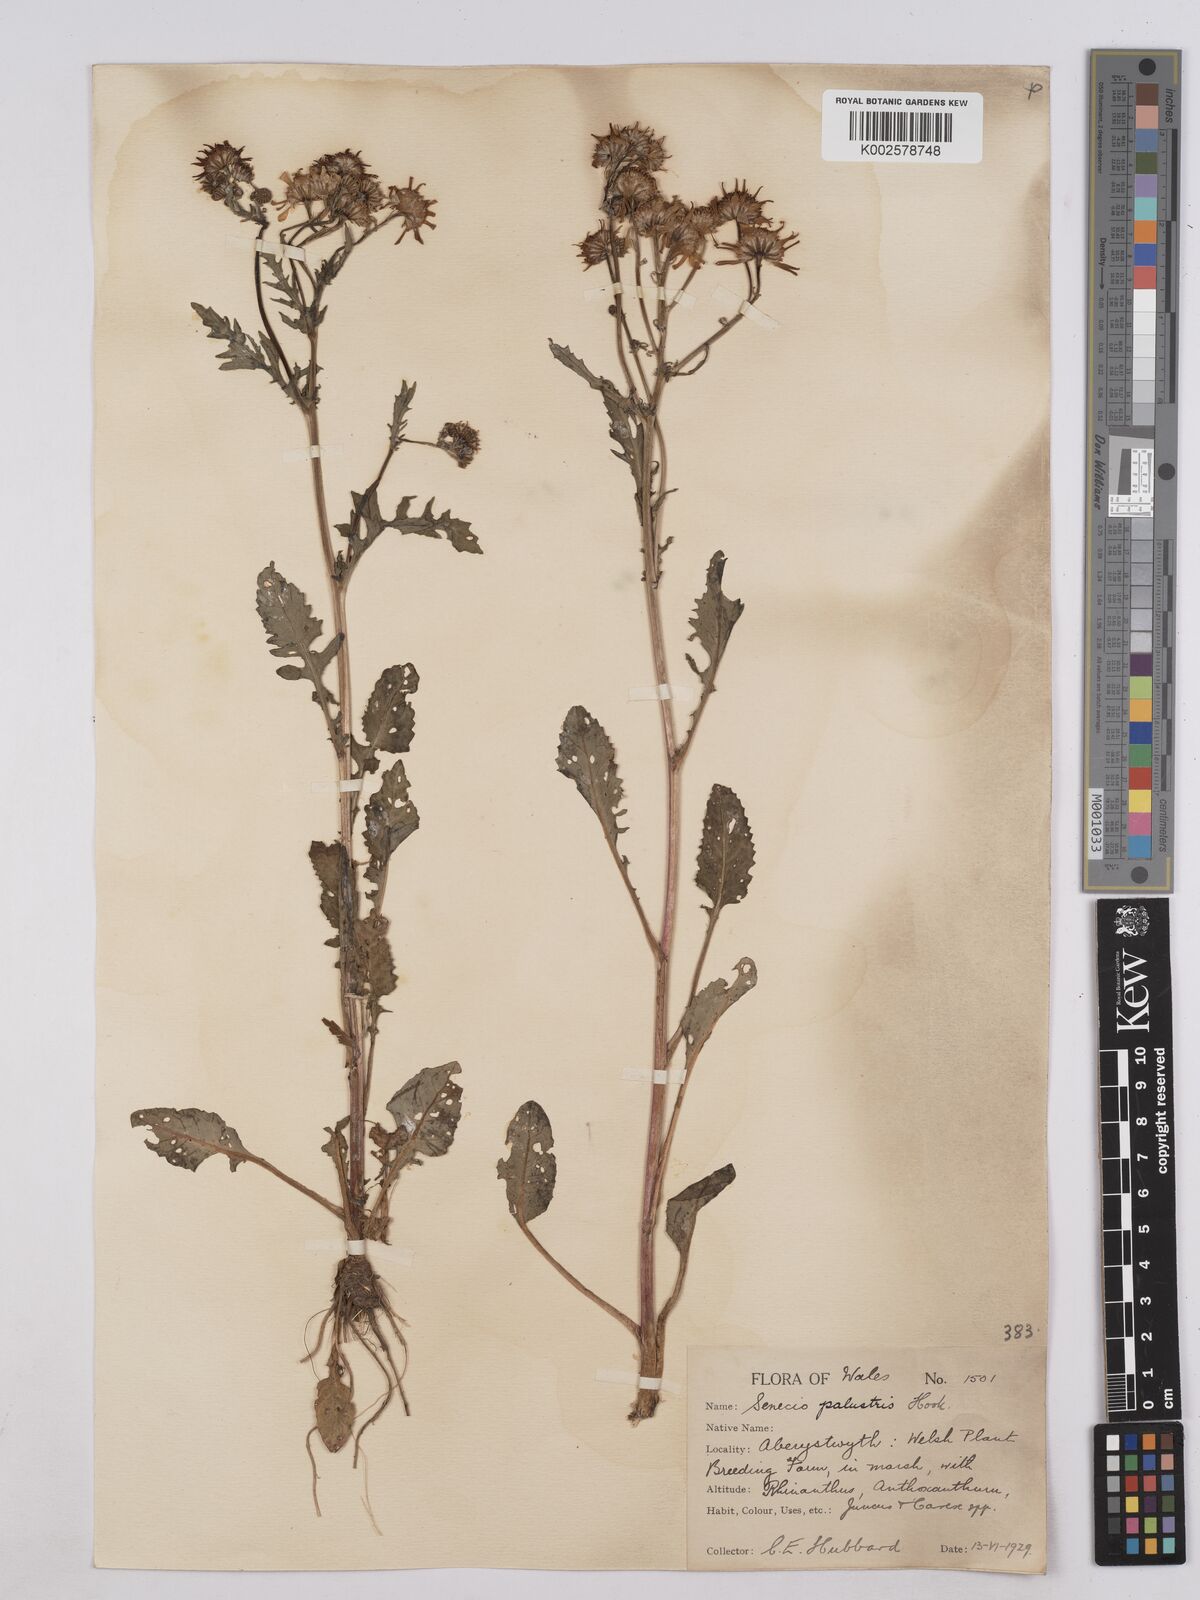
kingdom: Plantae
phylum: Tracheophyta
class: Magnoliopsida
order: Asterales
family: Asteraceae
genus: Jacobaea
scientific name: Jacobaea aquatica
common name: Water ragwort
